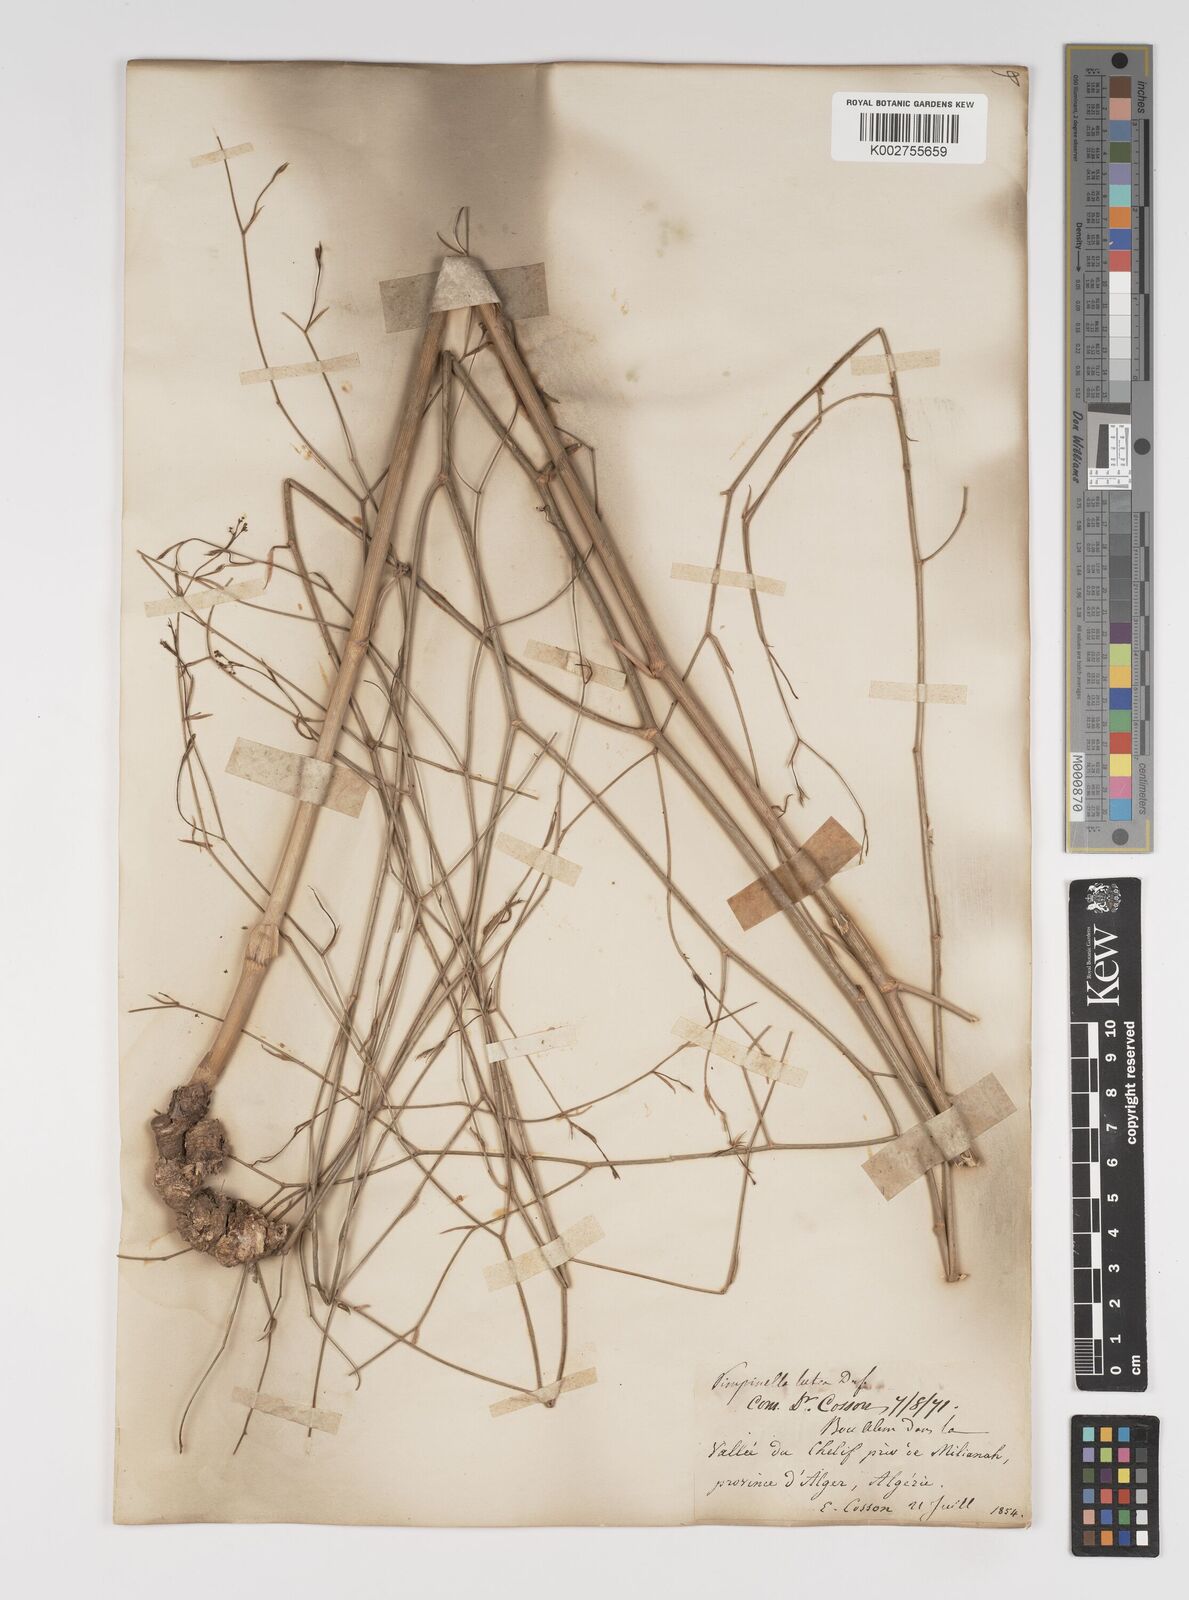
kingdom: Plantae
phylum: Tracheophyta
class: Magnoliopsida
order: Apiales
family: Apiaceae
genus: Pimpinella
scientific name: Pimpinella
